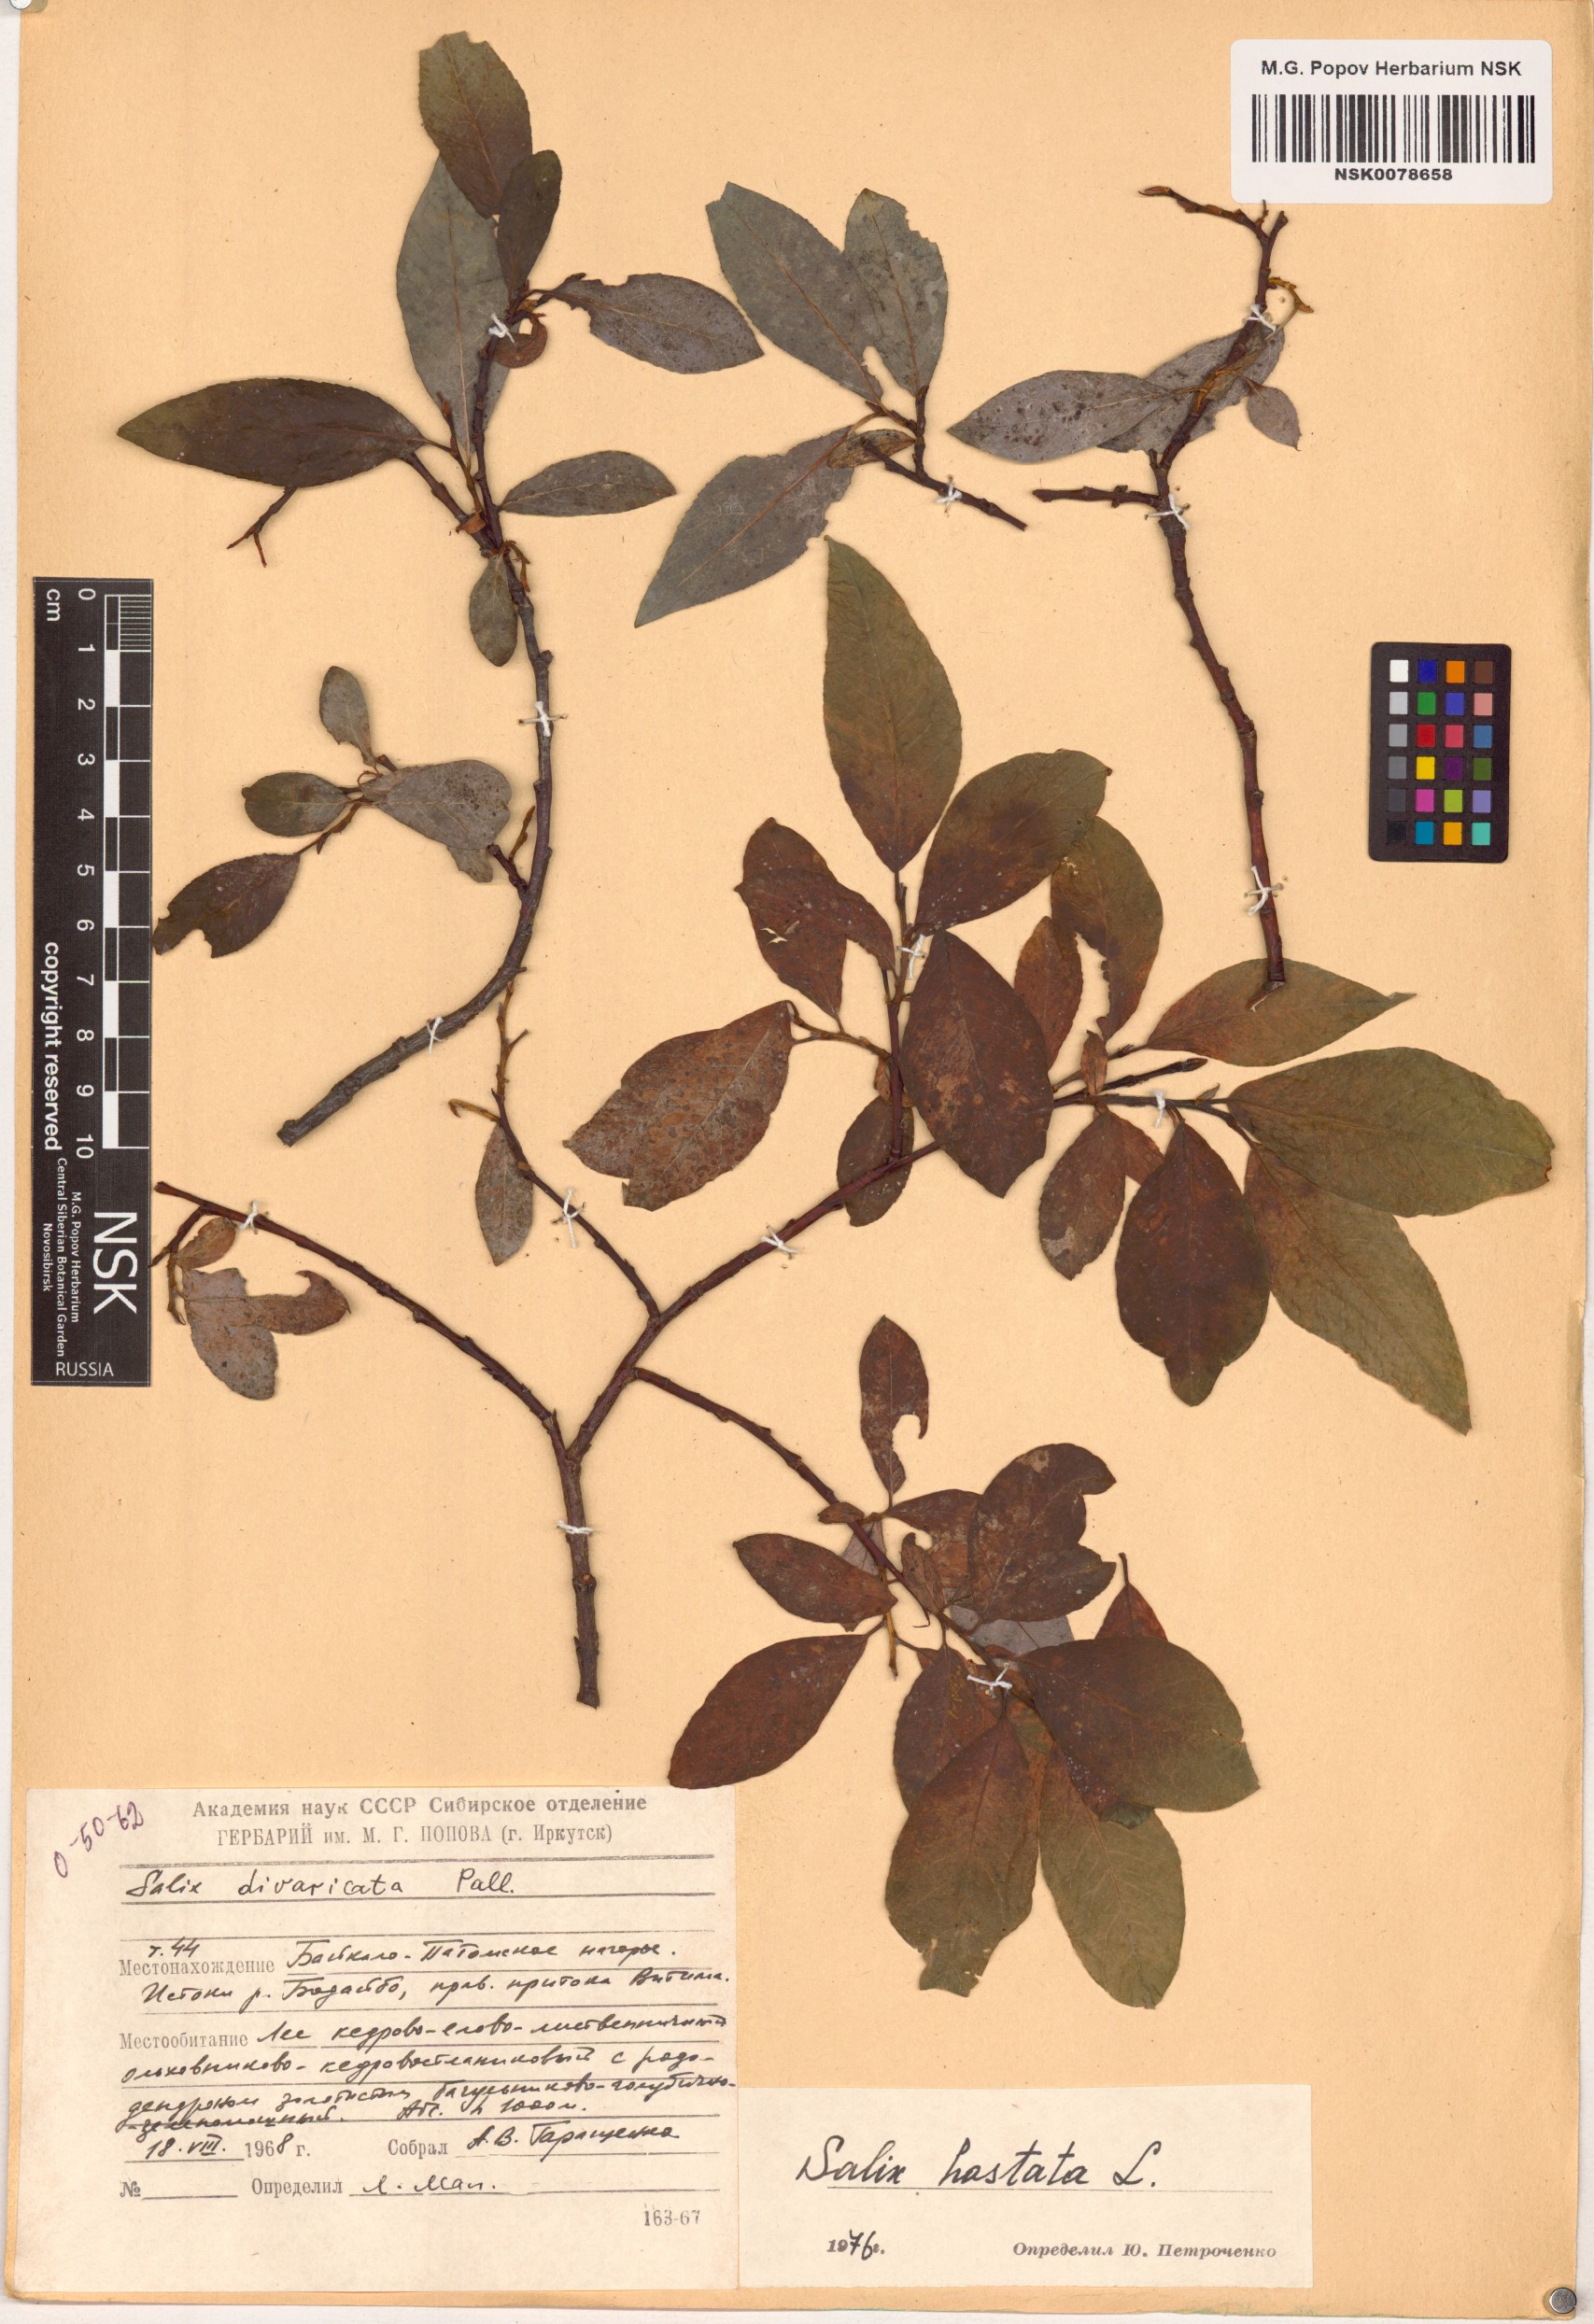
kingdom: Plantae
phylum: Tracheophyta
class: Magnoliopsida
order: Malpighiales
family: Salicaceae
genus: Salix
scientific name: Salix hastata
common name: Halberd willow
